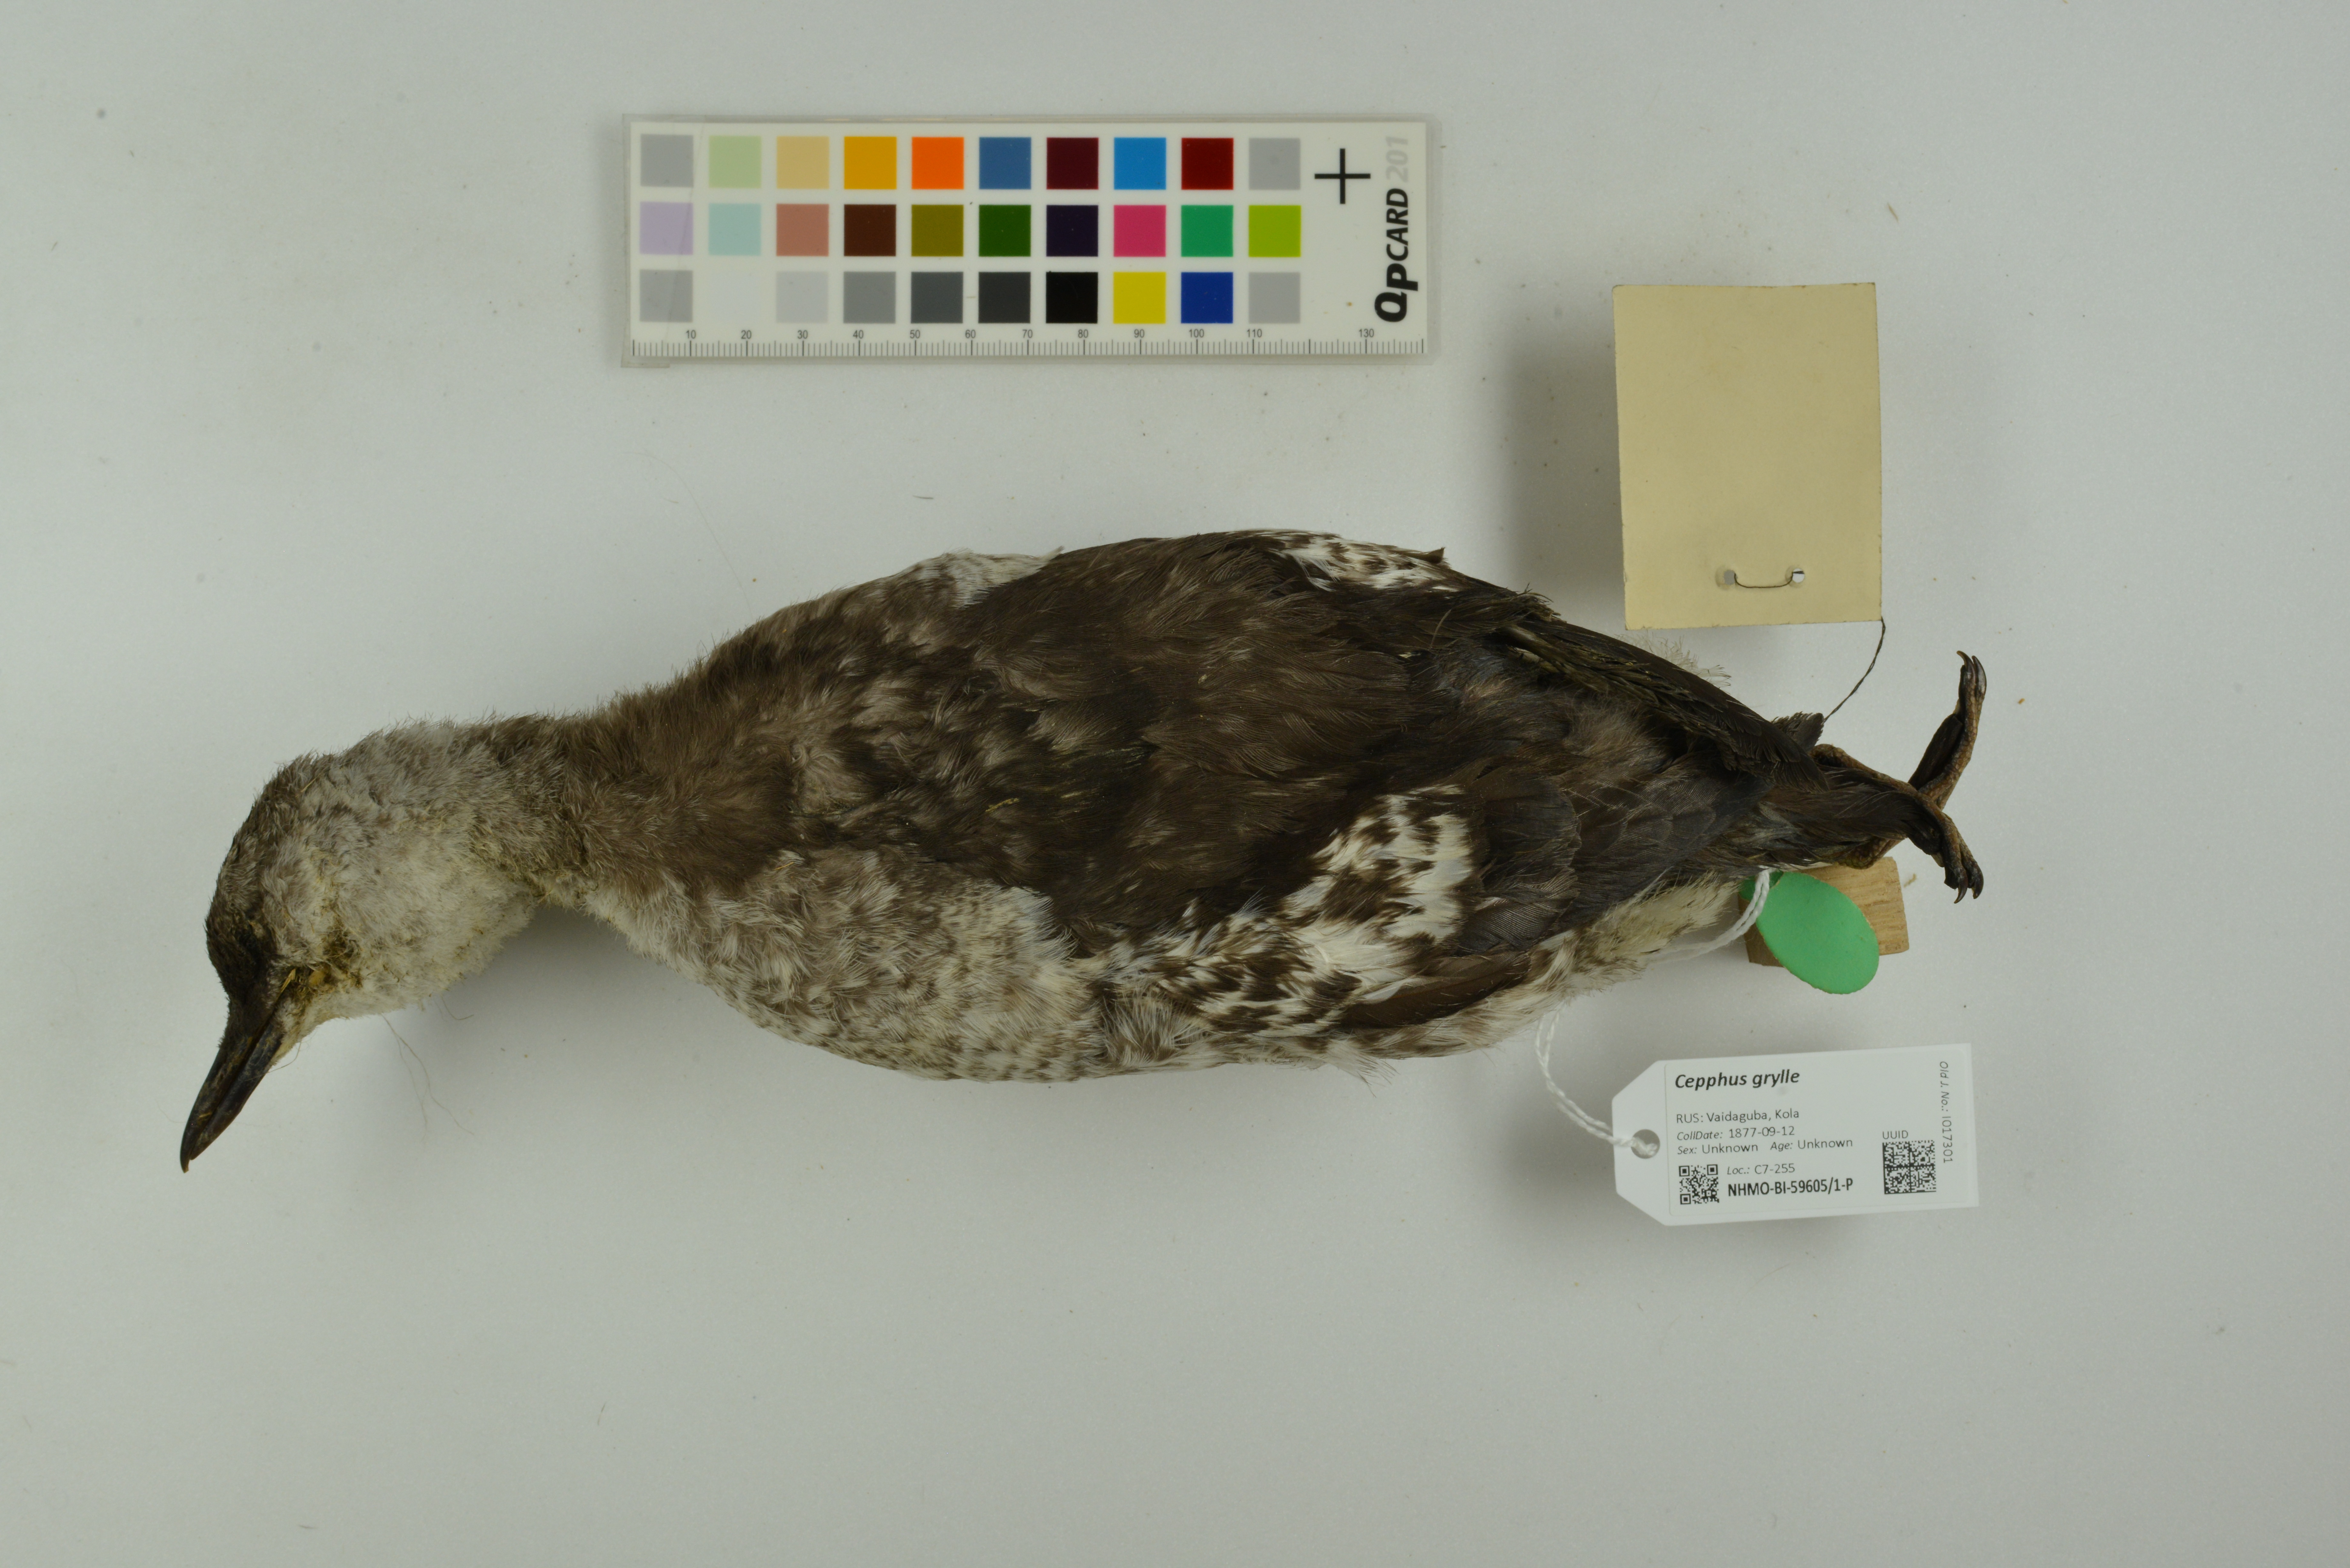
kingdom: Animalia
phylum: Chordata
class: Aves
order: Charadriiformes
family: Alcidae
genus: Cepphus
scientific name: Cepphus grylle
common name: Black guillemot
